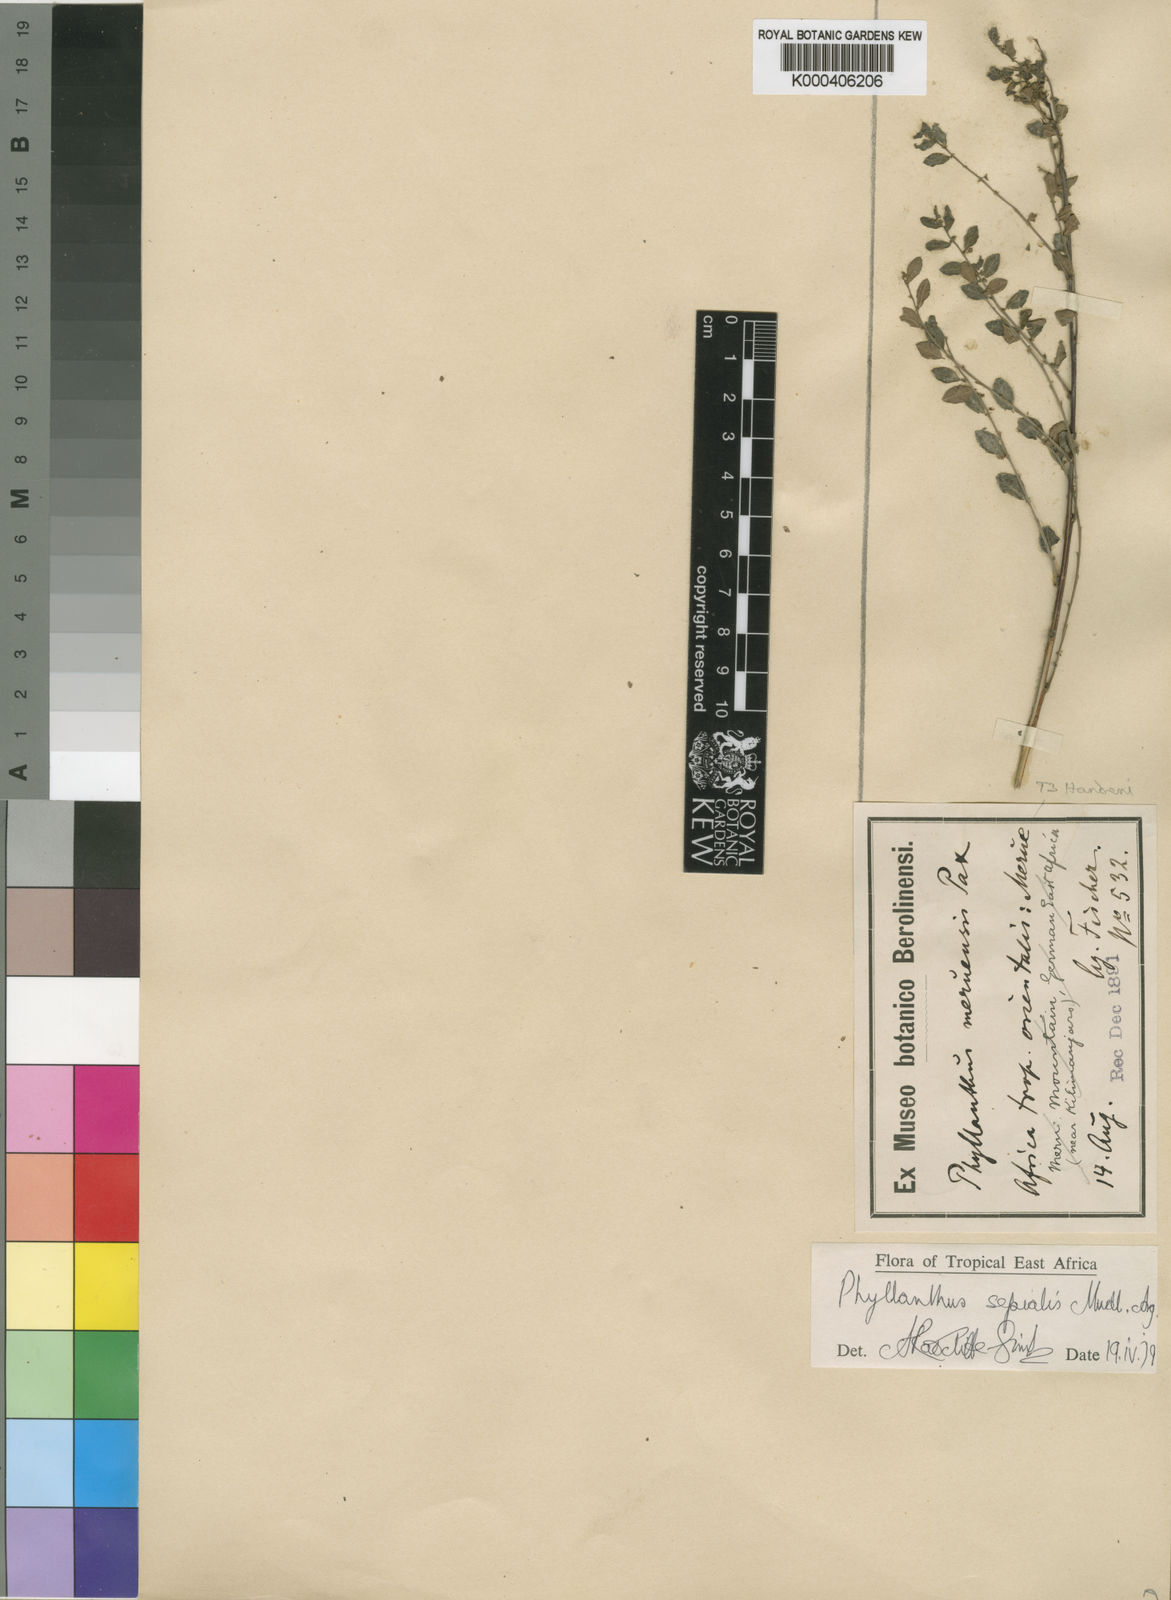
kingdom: Plantae
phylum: Tracheophyta
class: Magnoliopsida
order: Malpighiales
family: Phyllanthaceae
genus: Phyllanthus
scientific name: Phyllanthus
